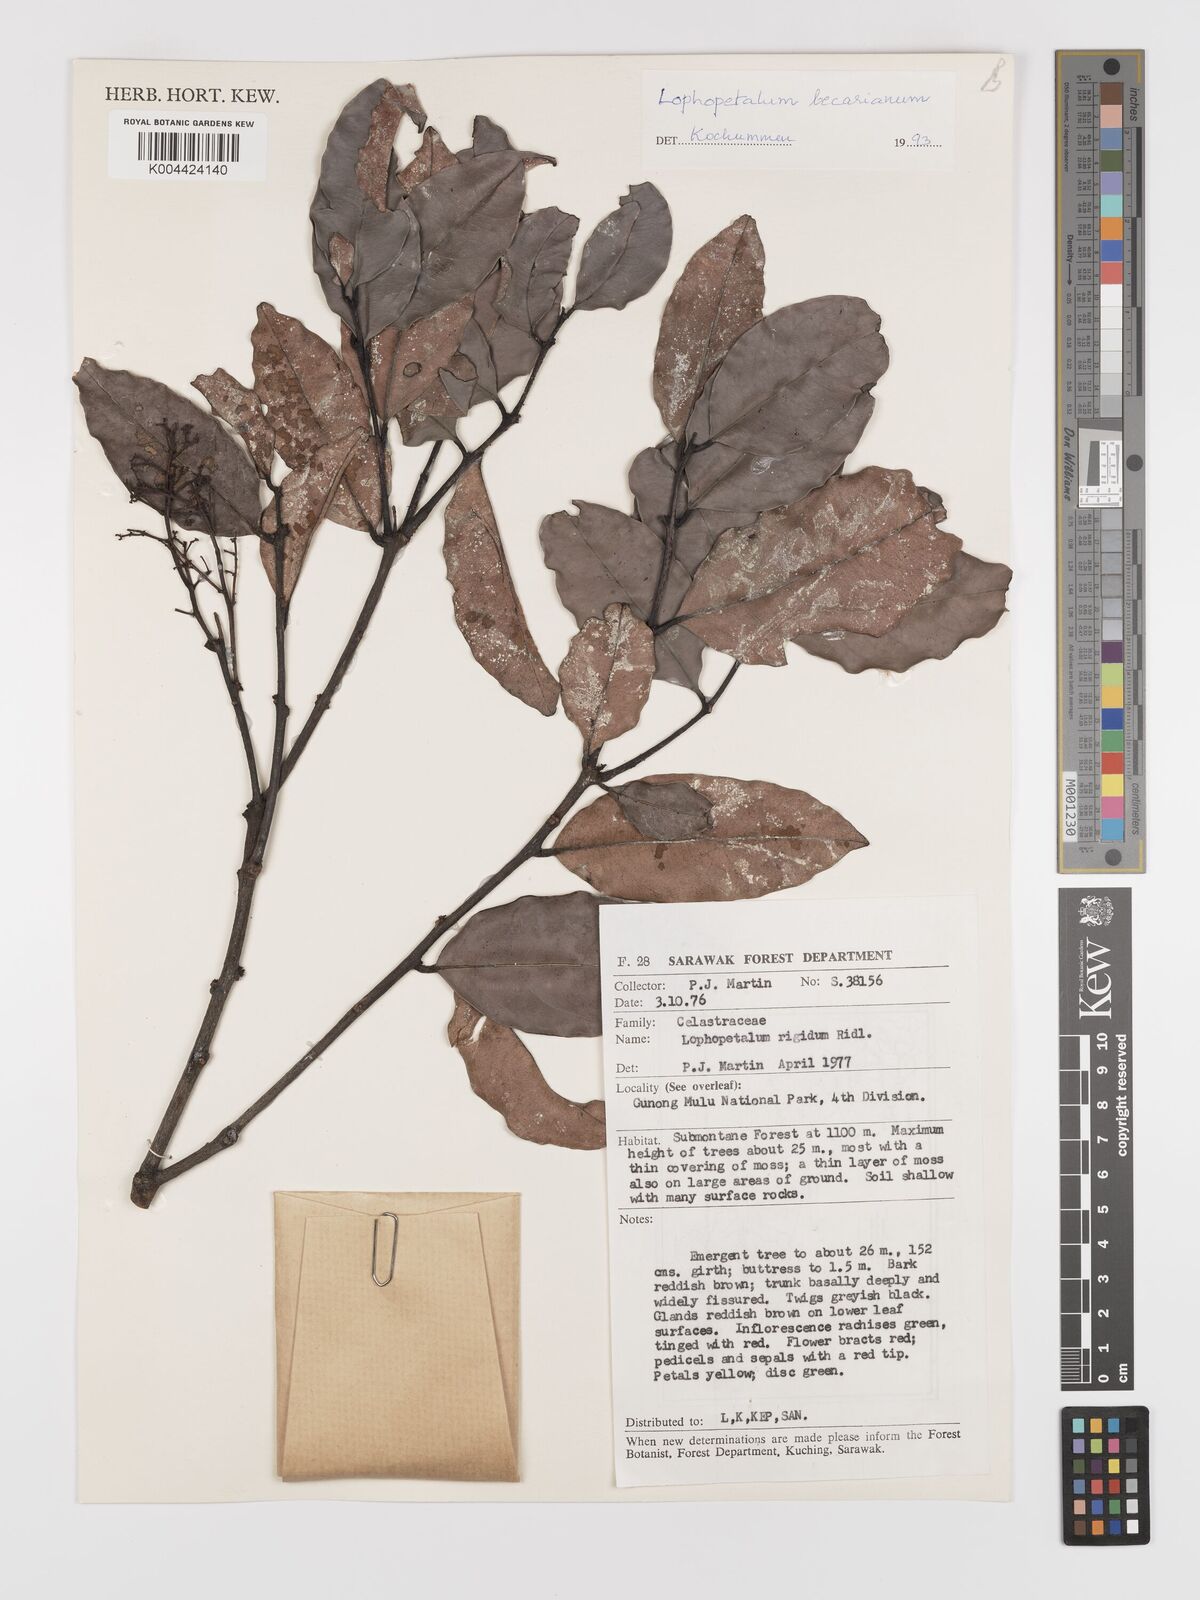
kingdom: Plantae
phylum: Tracheophyta
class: Magnoliopsida
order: Celastrales
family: Celastraceae
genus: Lophopetalum
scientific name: Lophopetalum beccarianum
